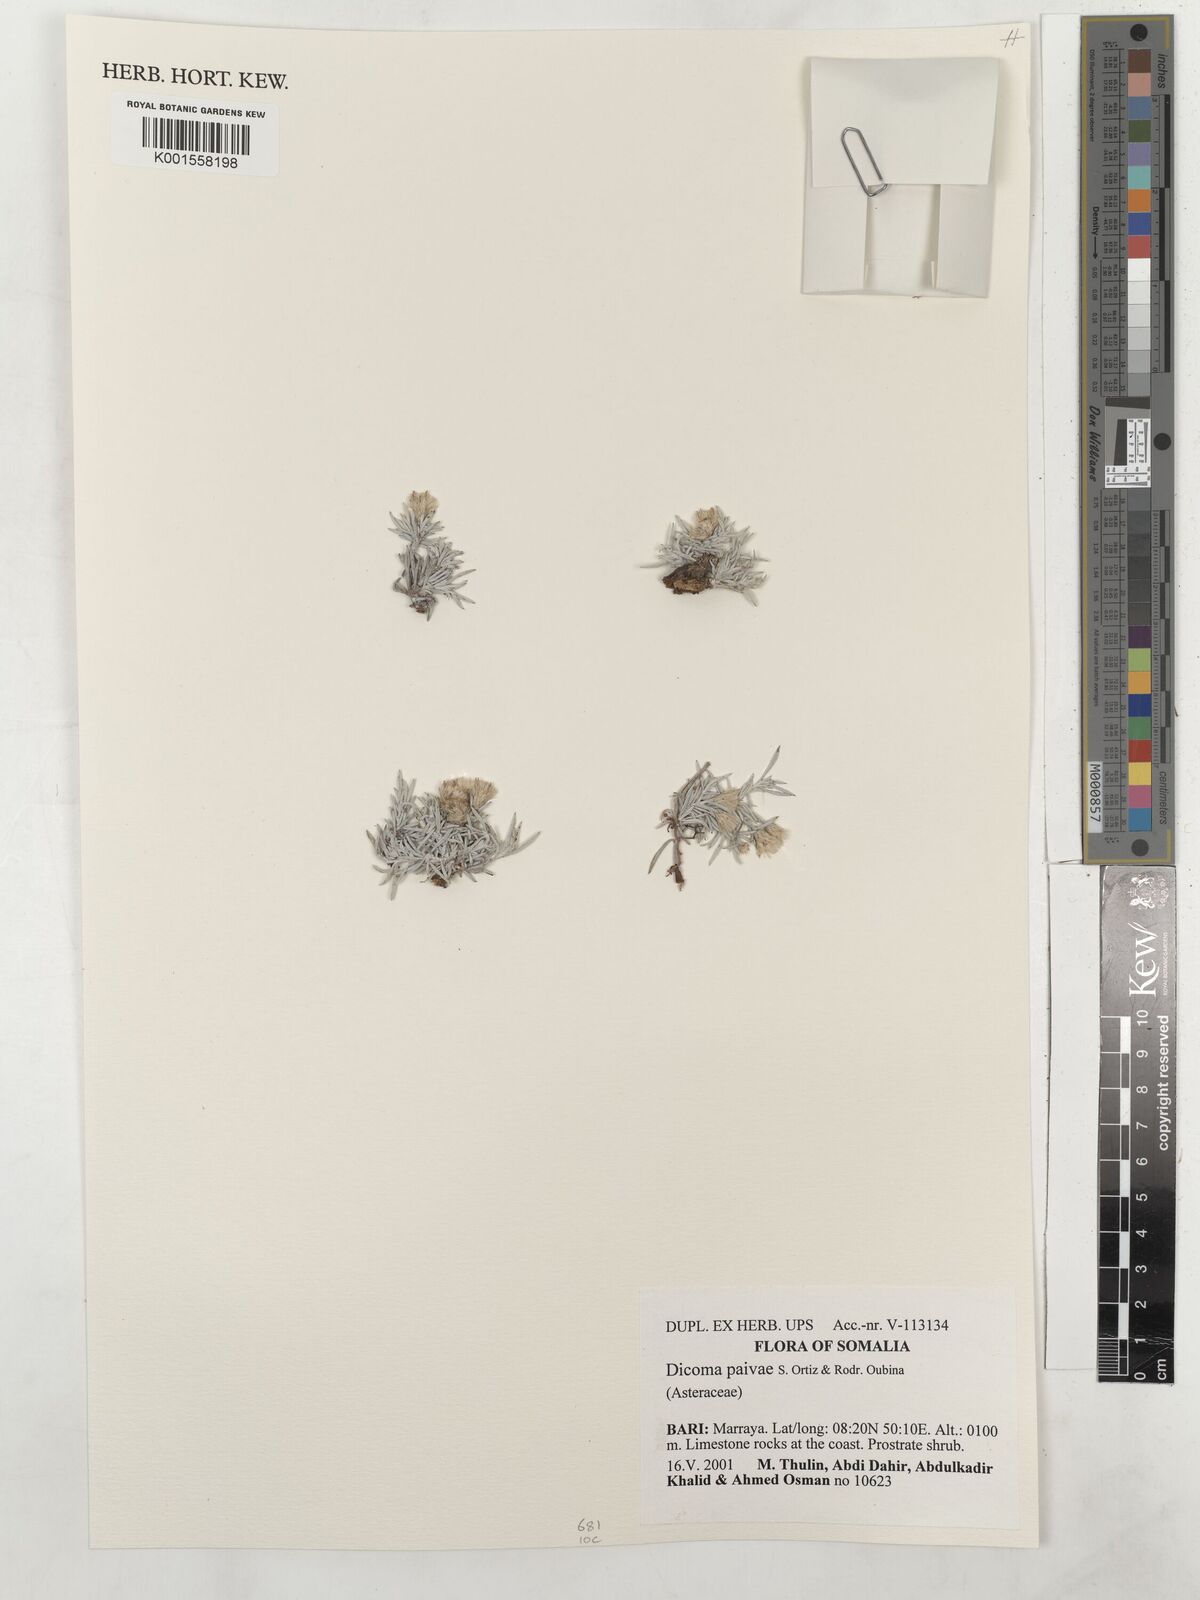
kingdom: Plantae
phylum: Tracheophyta
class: Magnoliopsida
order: Asterales
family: Asteraceae
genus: Dicoma
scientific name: Dicoma paivae
